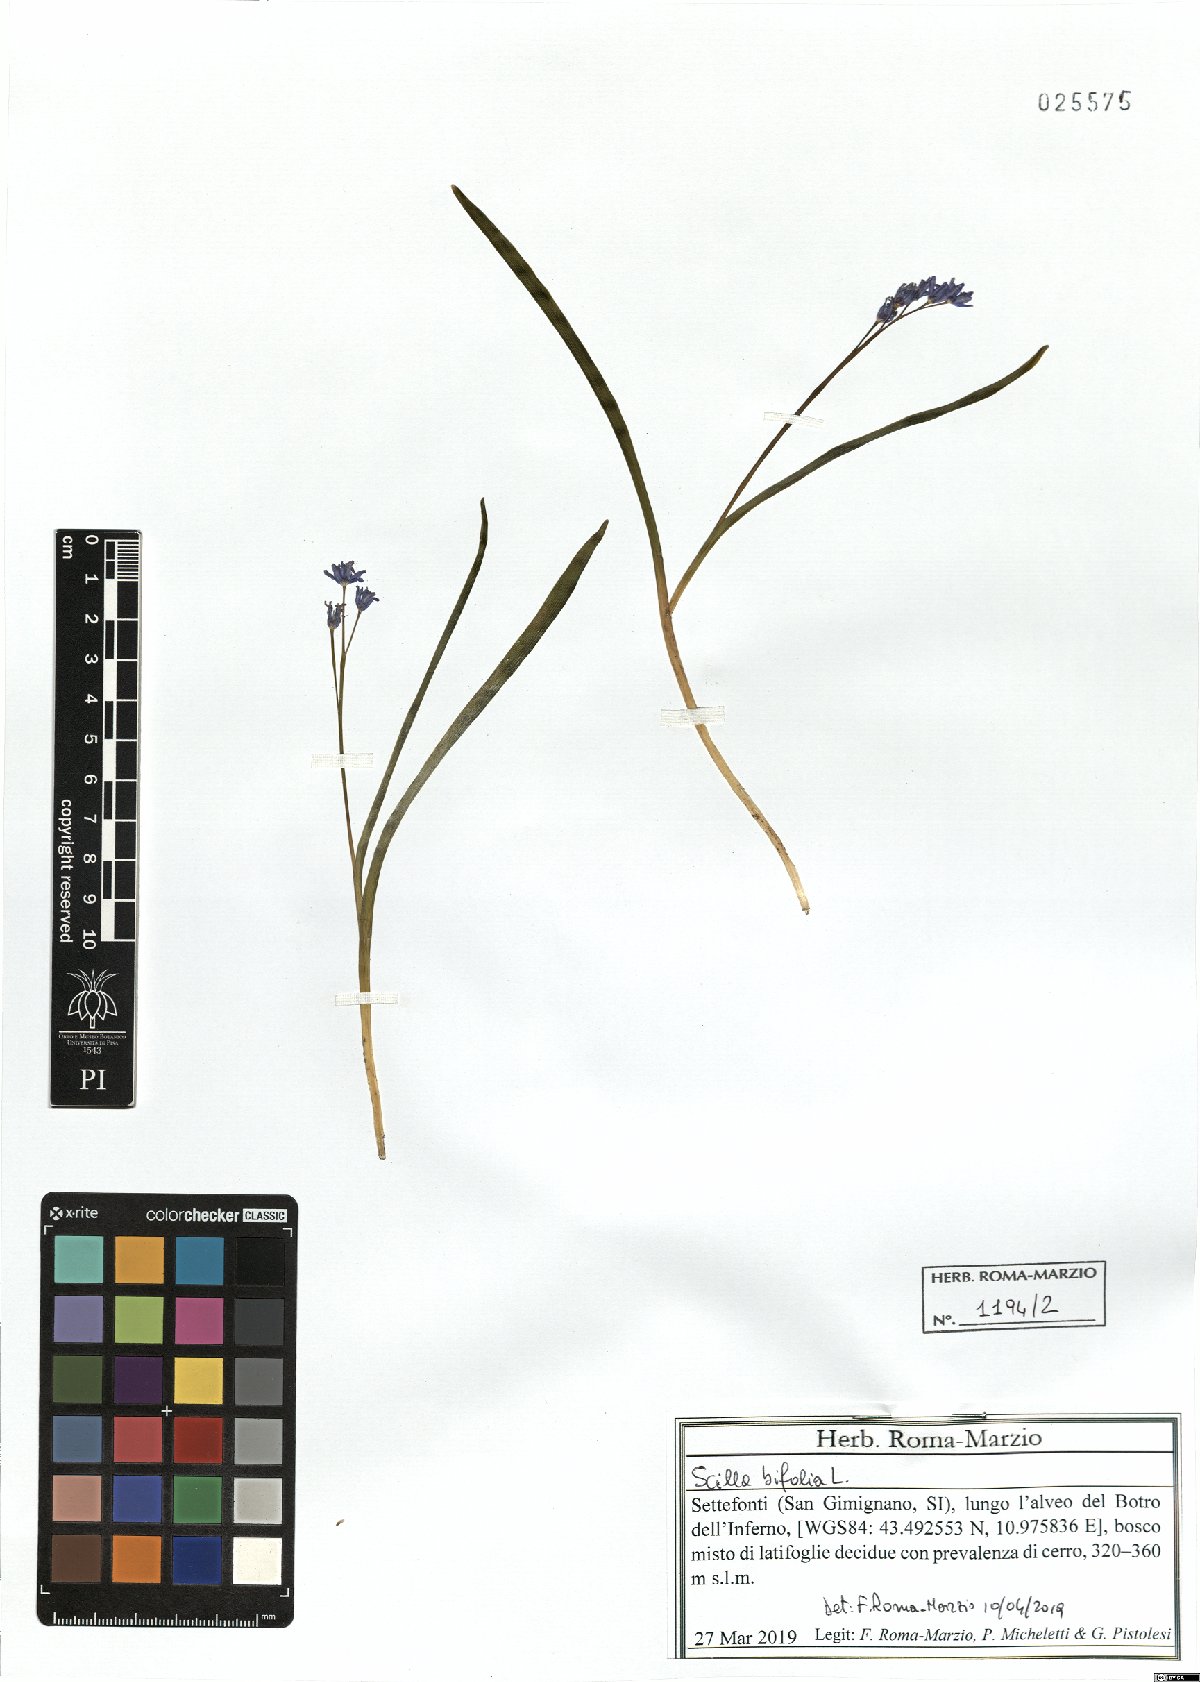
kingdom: Plantae
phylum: Tracheophyta
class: Liliopsida
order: Asparagales
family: Asparagaceae
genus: Scilla
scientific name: Scilla bifolia
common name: Alpine squill
